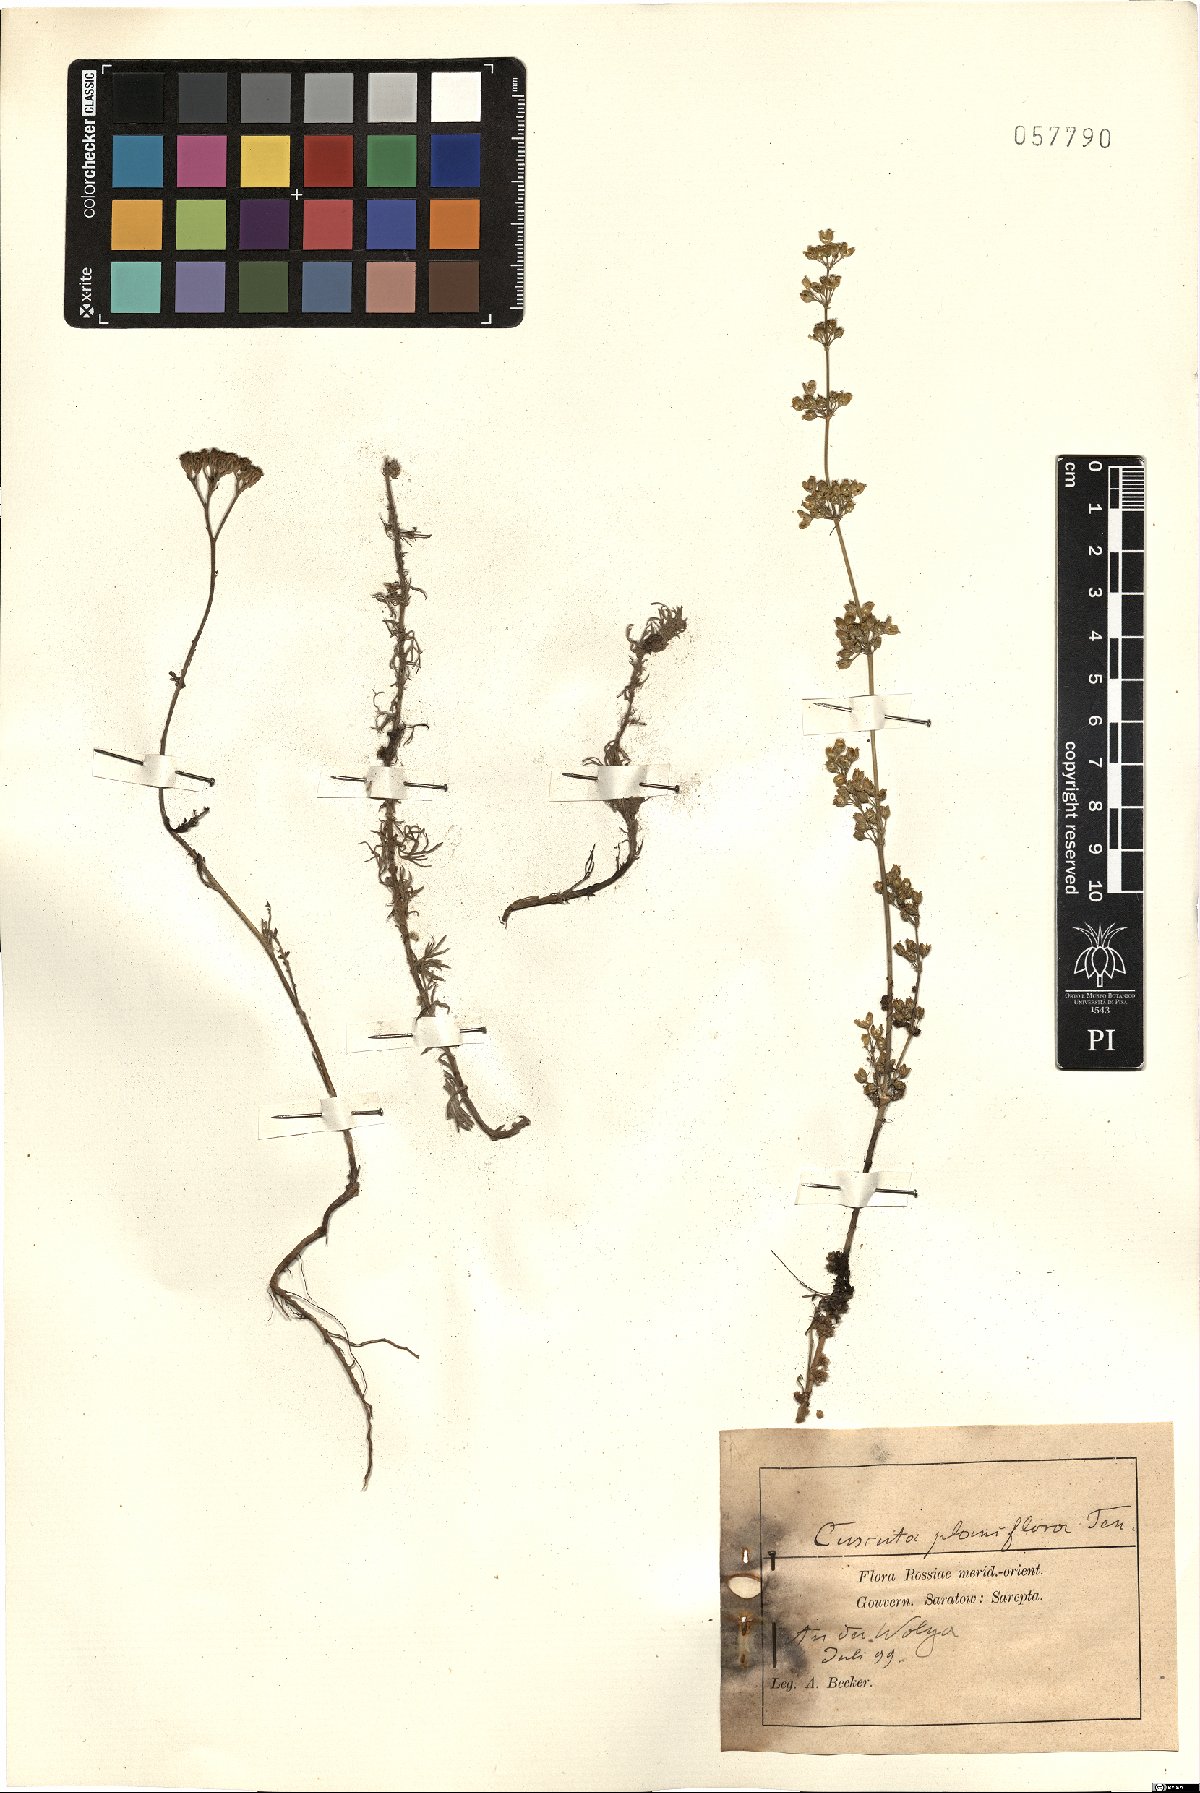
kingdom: Plantae
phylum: Tracheophyta
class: Magnoliopsida
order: Solanales
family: Convolvulaceae
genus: Cuscuta
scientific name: Cuscuta planiflora
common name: Small-seed alfalfa dodder
